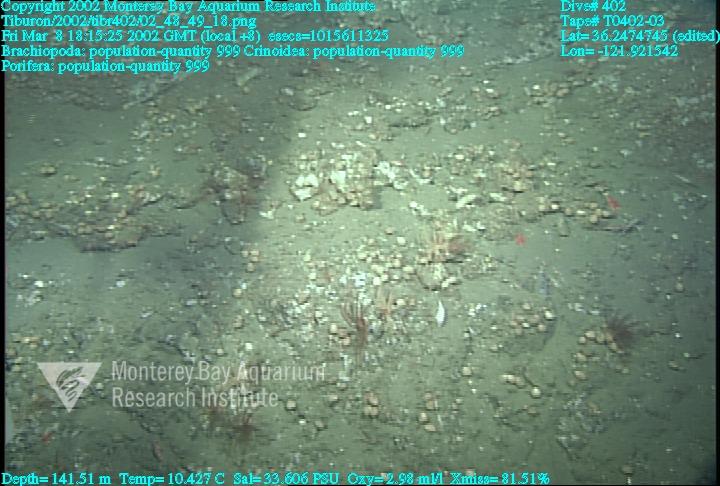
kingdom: Animalia
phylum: Porifera
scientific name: Porifera
